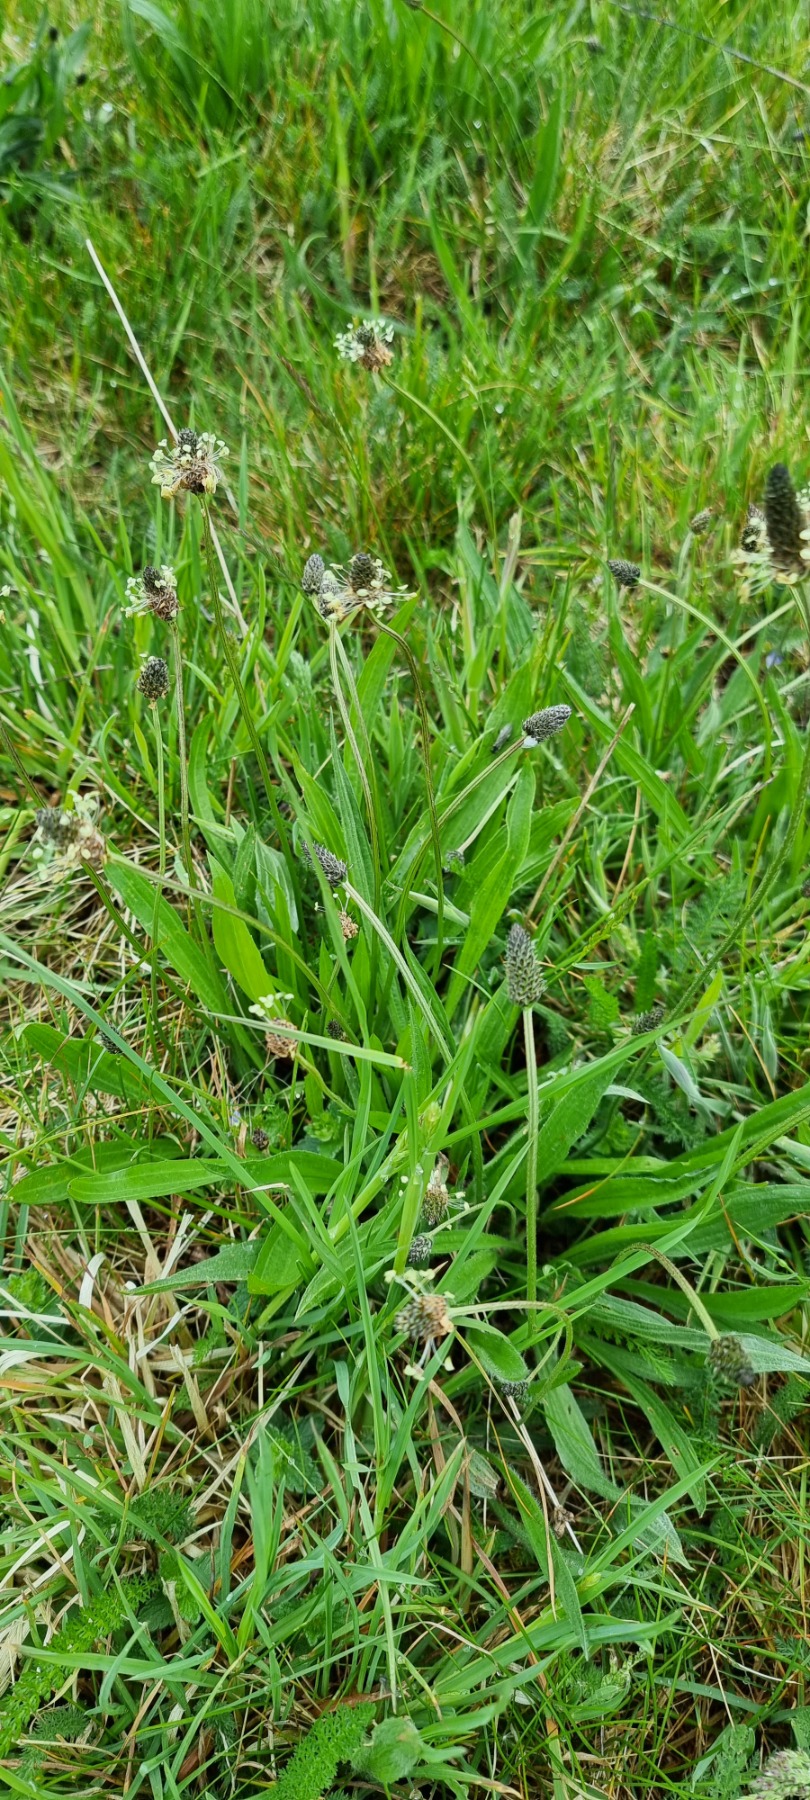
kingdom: Plantae
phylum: Tracheophyta
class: Magnoliopsida
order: Lamiales
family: Plantaginaceae
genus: Plantago
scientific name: Plantago lanceolata
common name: Lancet-vejbred
